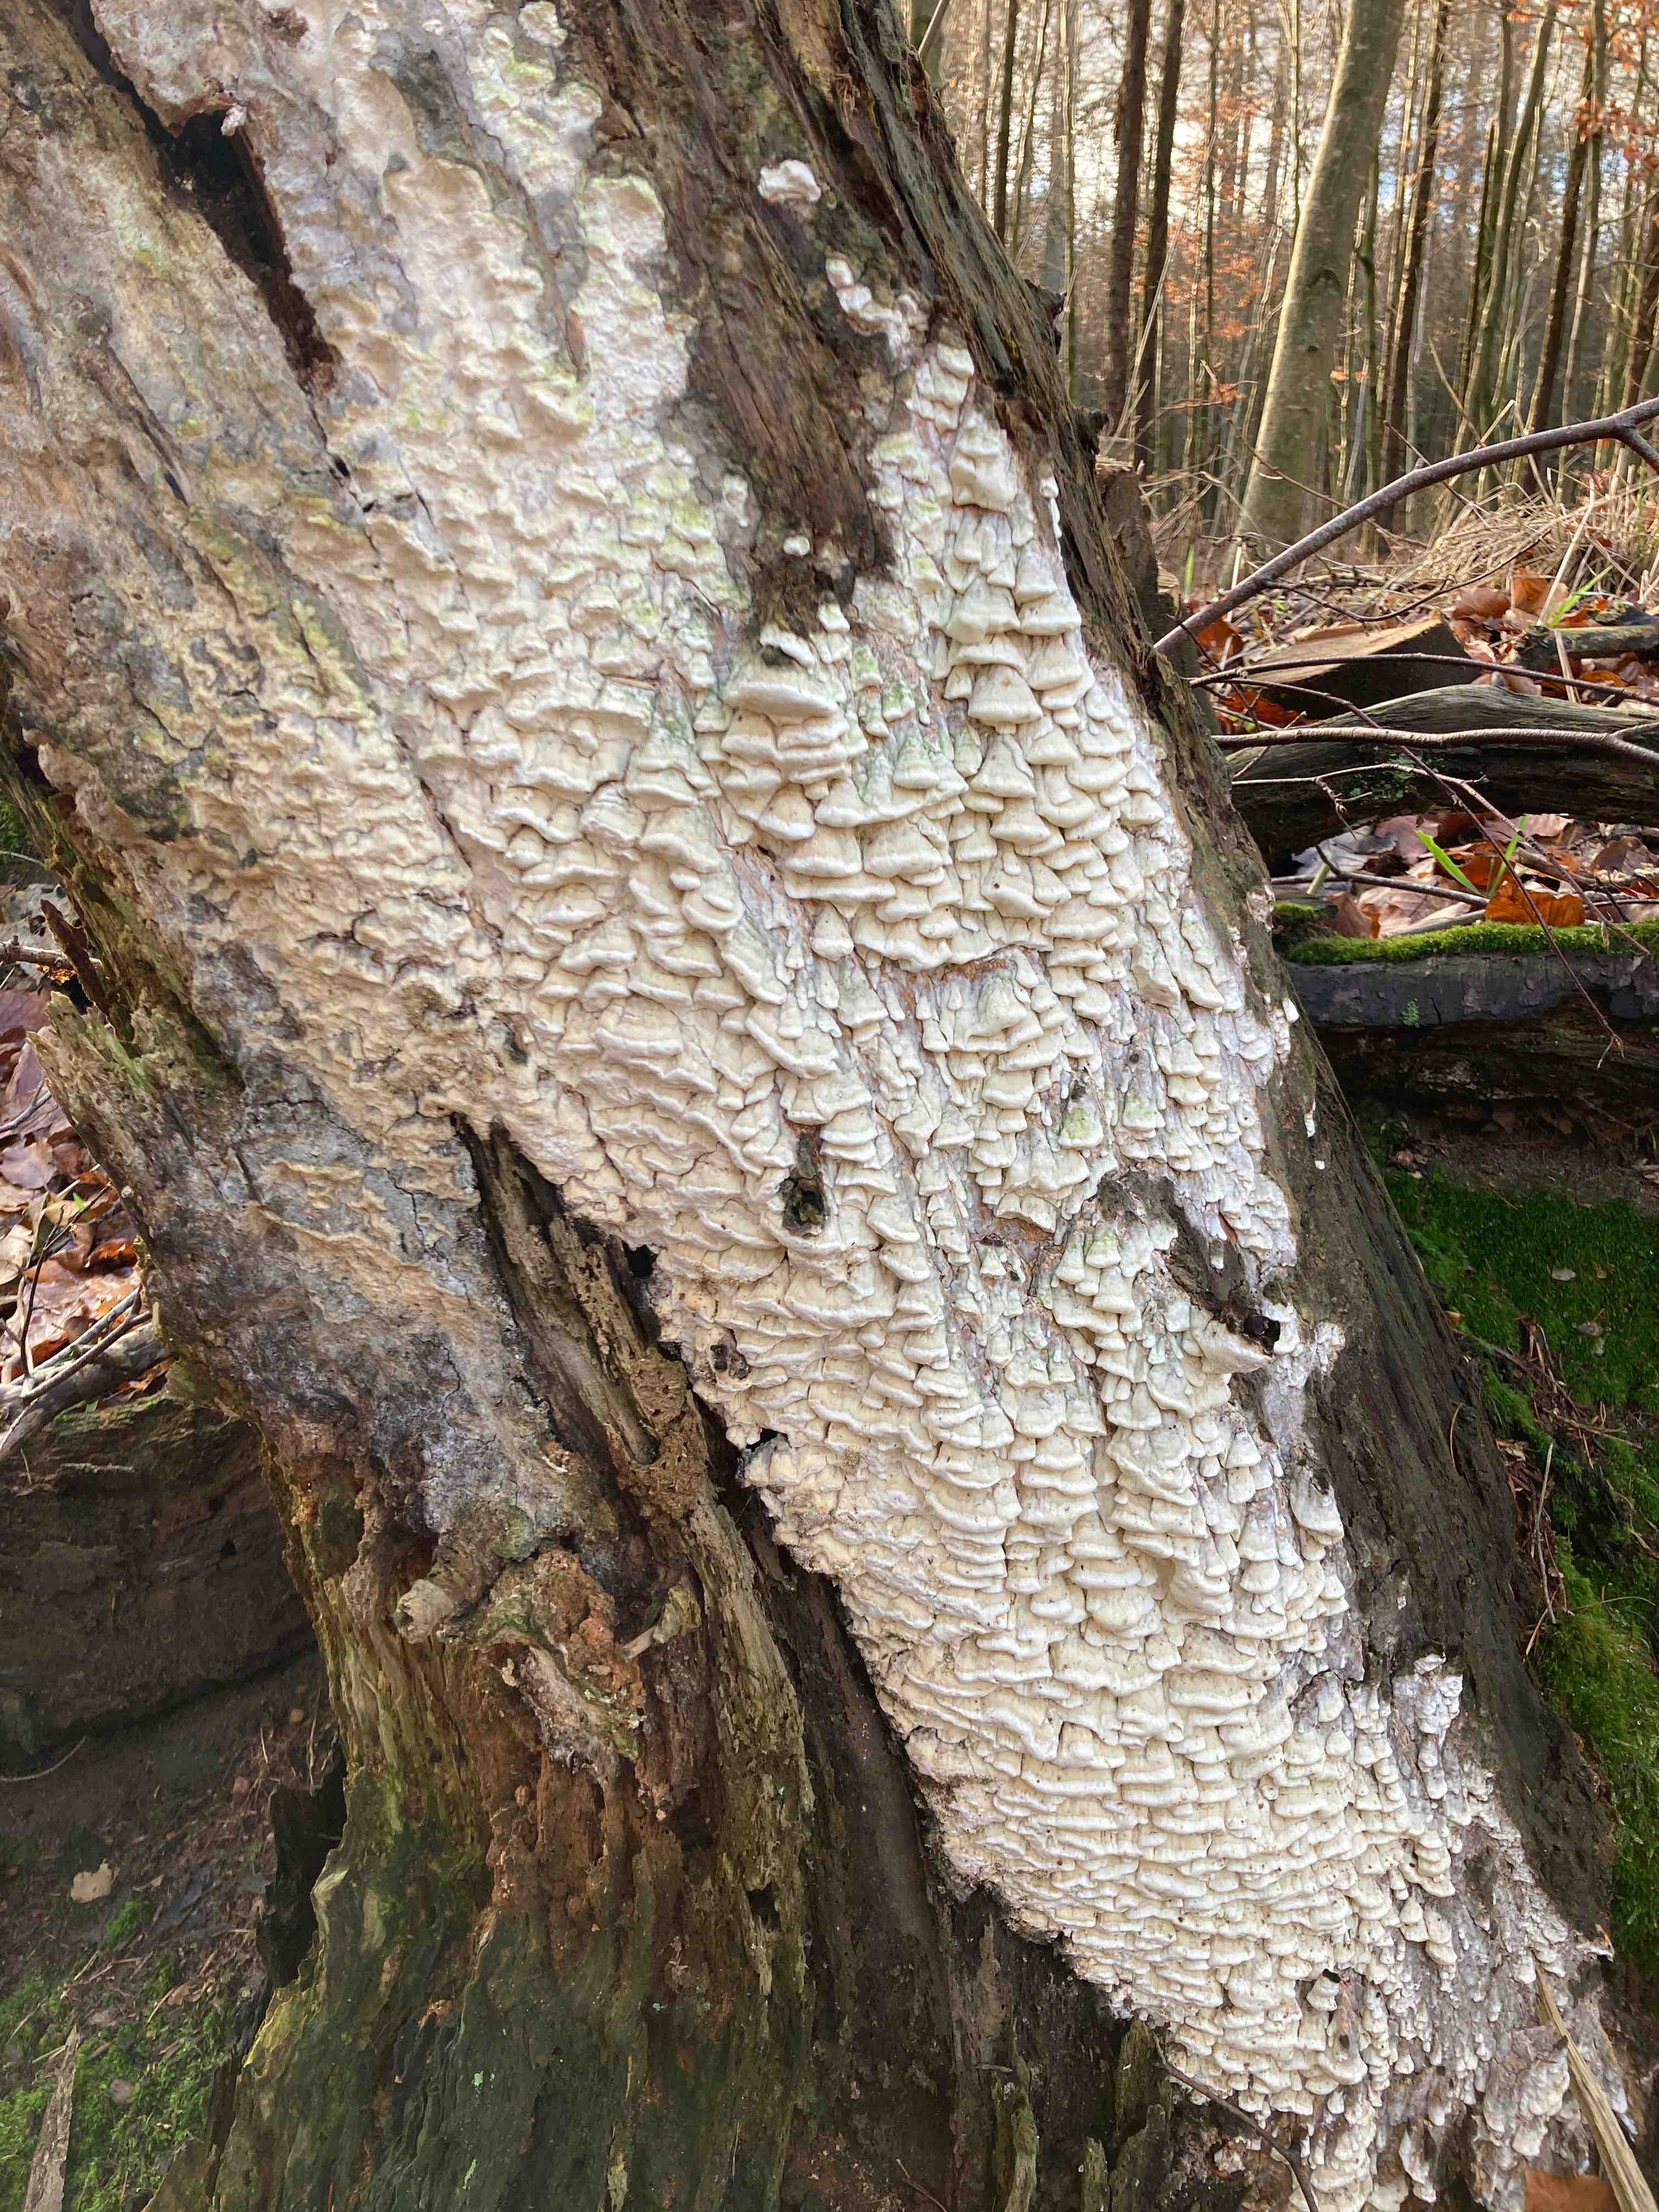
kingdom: Fungi
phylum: Basidiomycota
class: Agaricomycetes
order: Polyporales
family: Fomitopsidaceae
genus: Daedalea
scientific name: Daedalea xantha
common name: gul sejporesvamp
